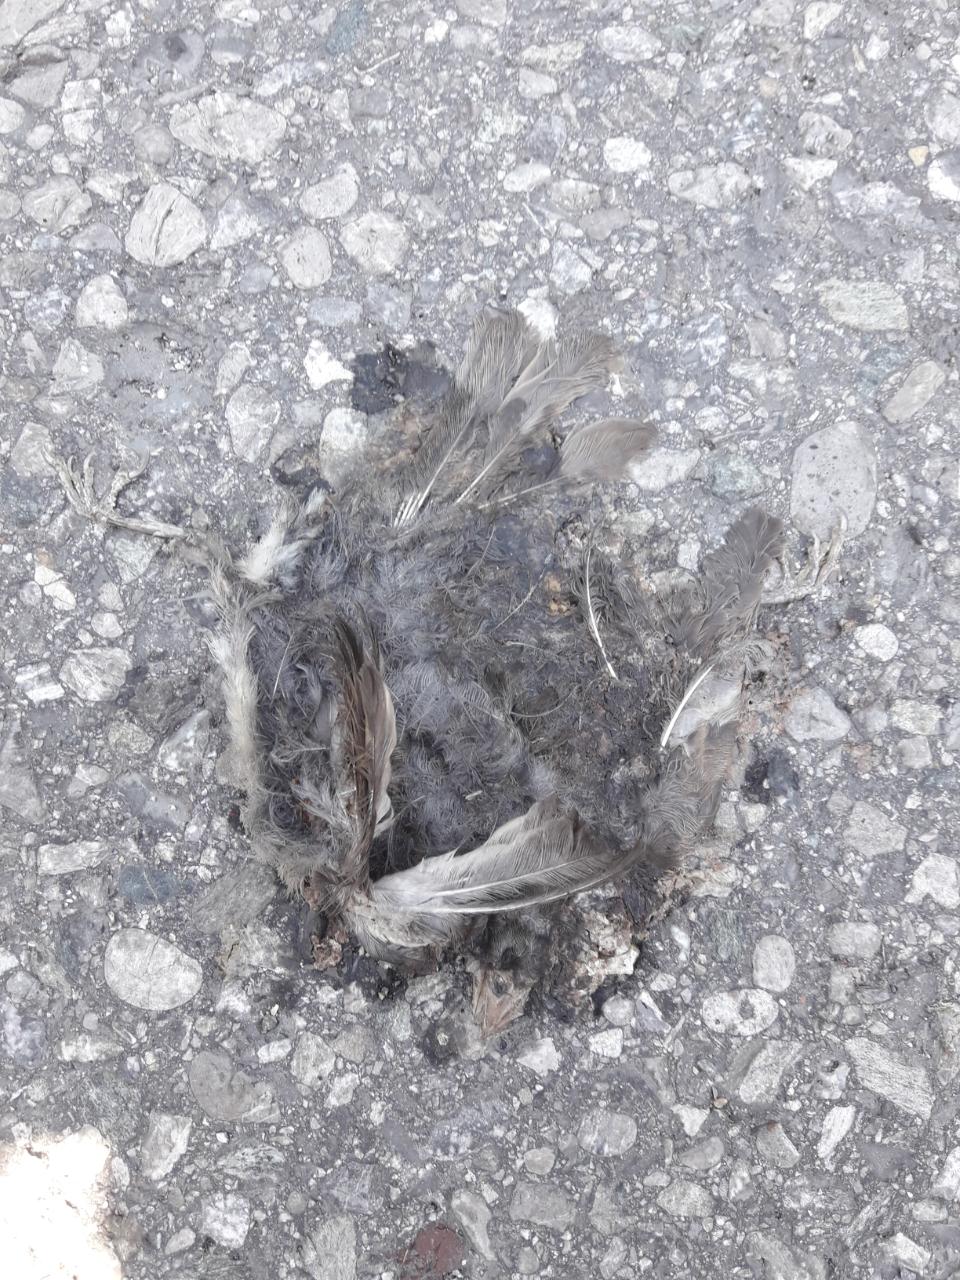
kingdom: Animalia
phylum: Chordata
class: Aves
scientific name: Aves
